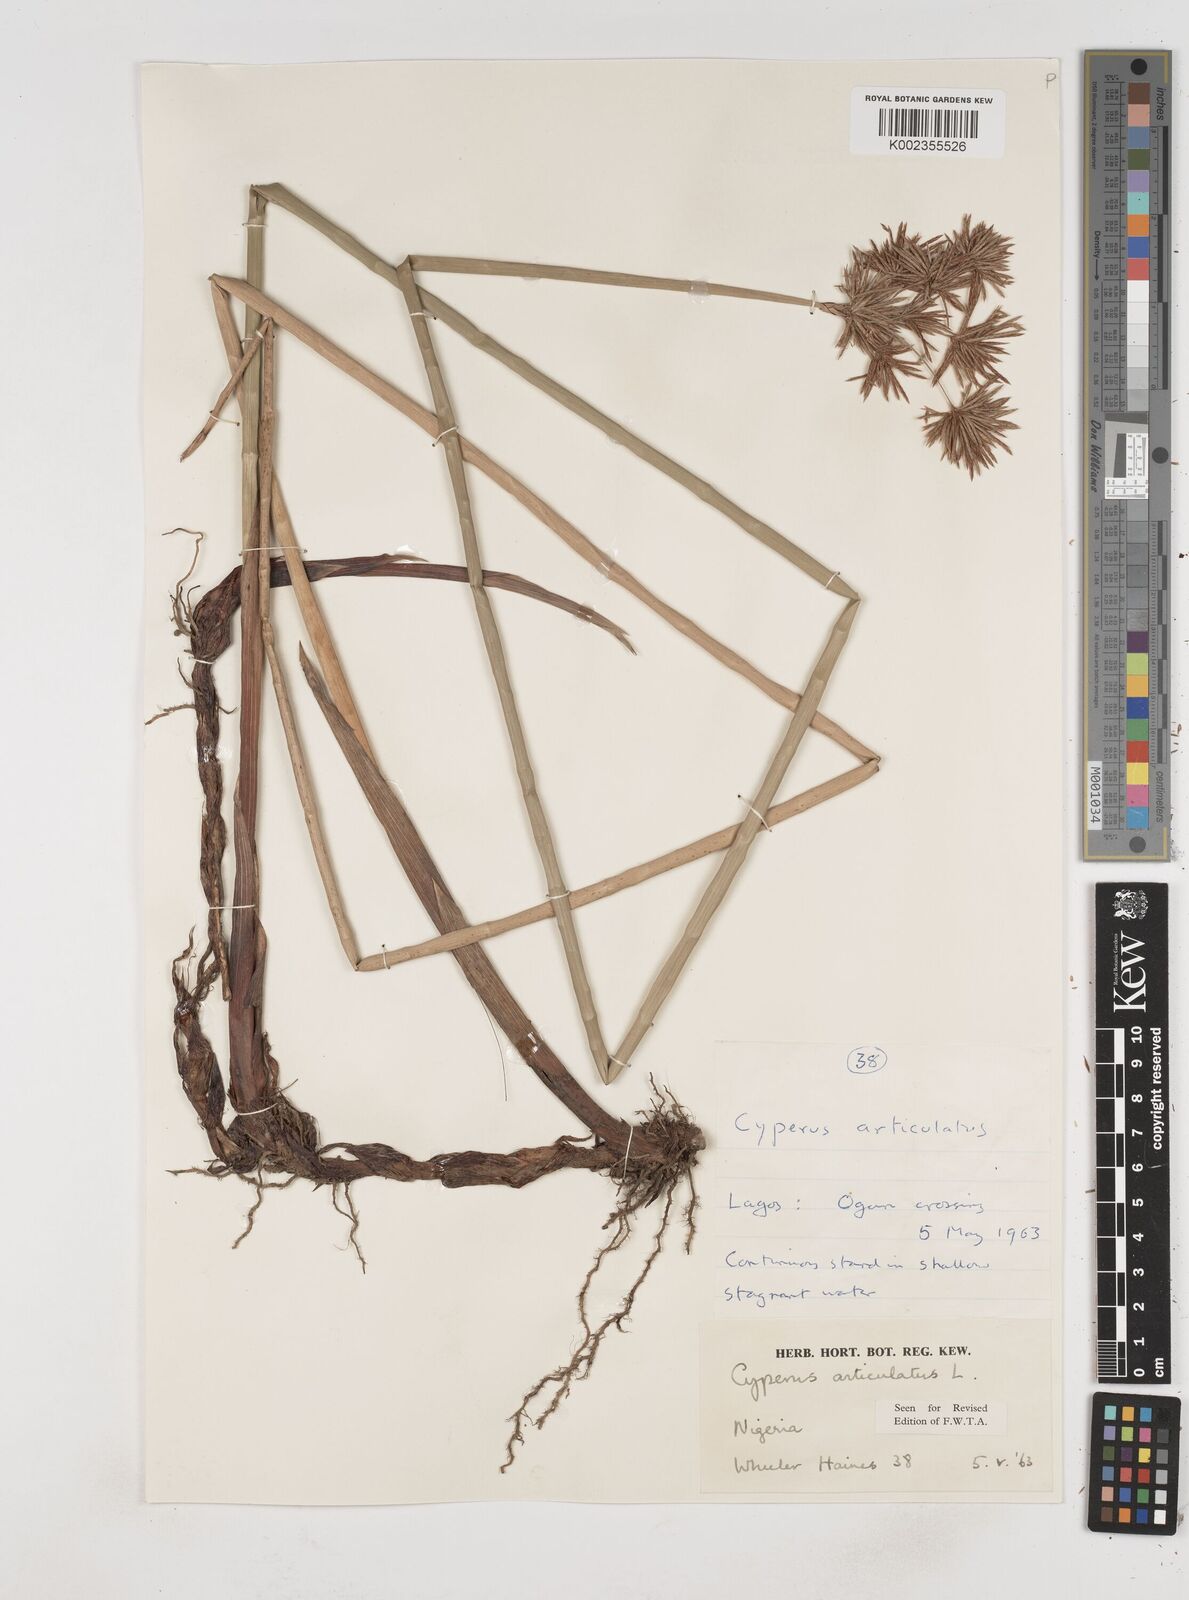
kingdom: Plantae
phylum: Tracheophyta
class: Liliopsida
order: Poales
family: Cyperaceae
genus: Cyperus
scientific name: Cyperus articulatus
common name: Jointed flatsedge
